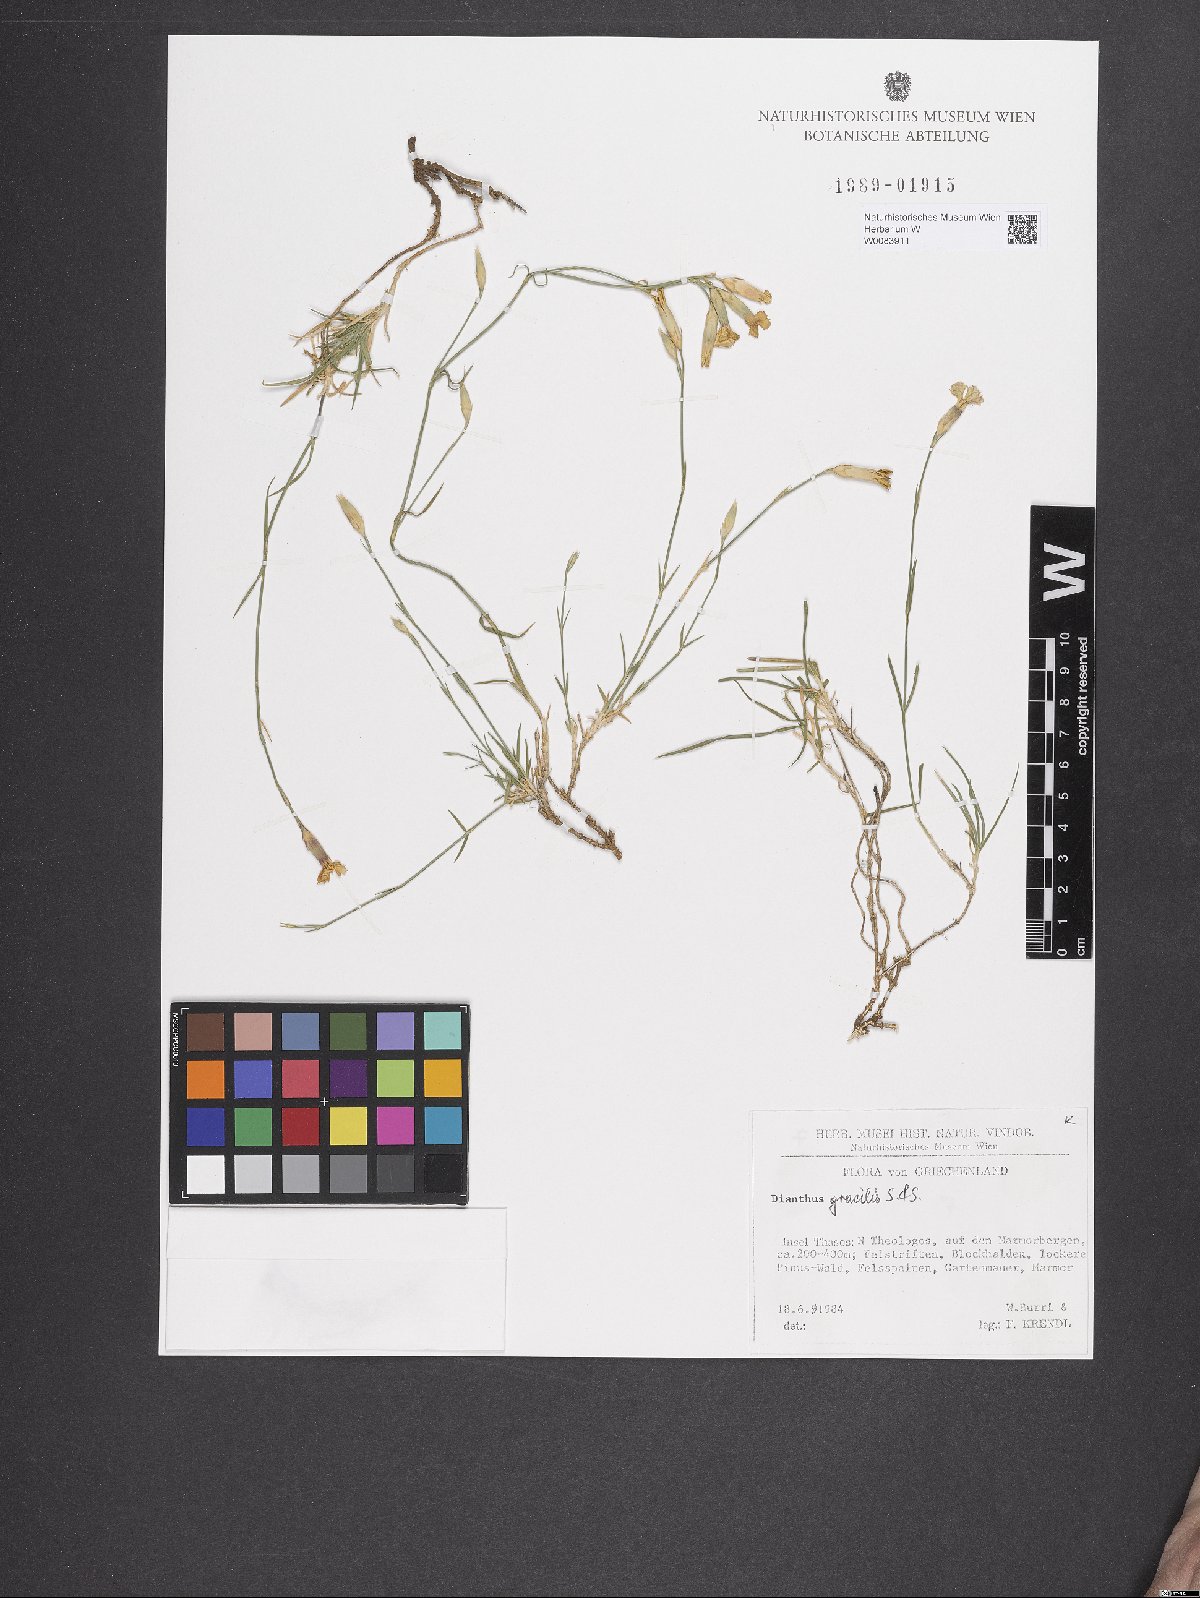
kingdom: Plantae
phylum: Tracheophyta
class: Magnoliopsida
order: Caryophyllales
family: Caryophyllaceae
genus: Dianthus
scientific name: Dianthus gracilis
